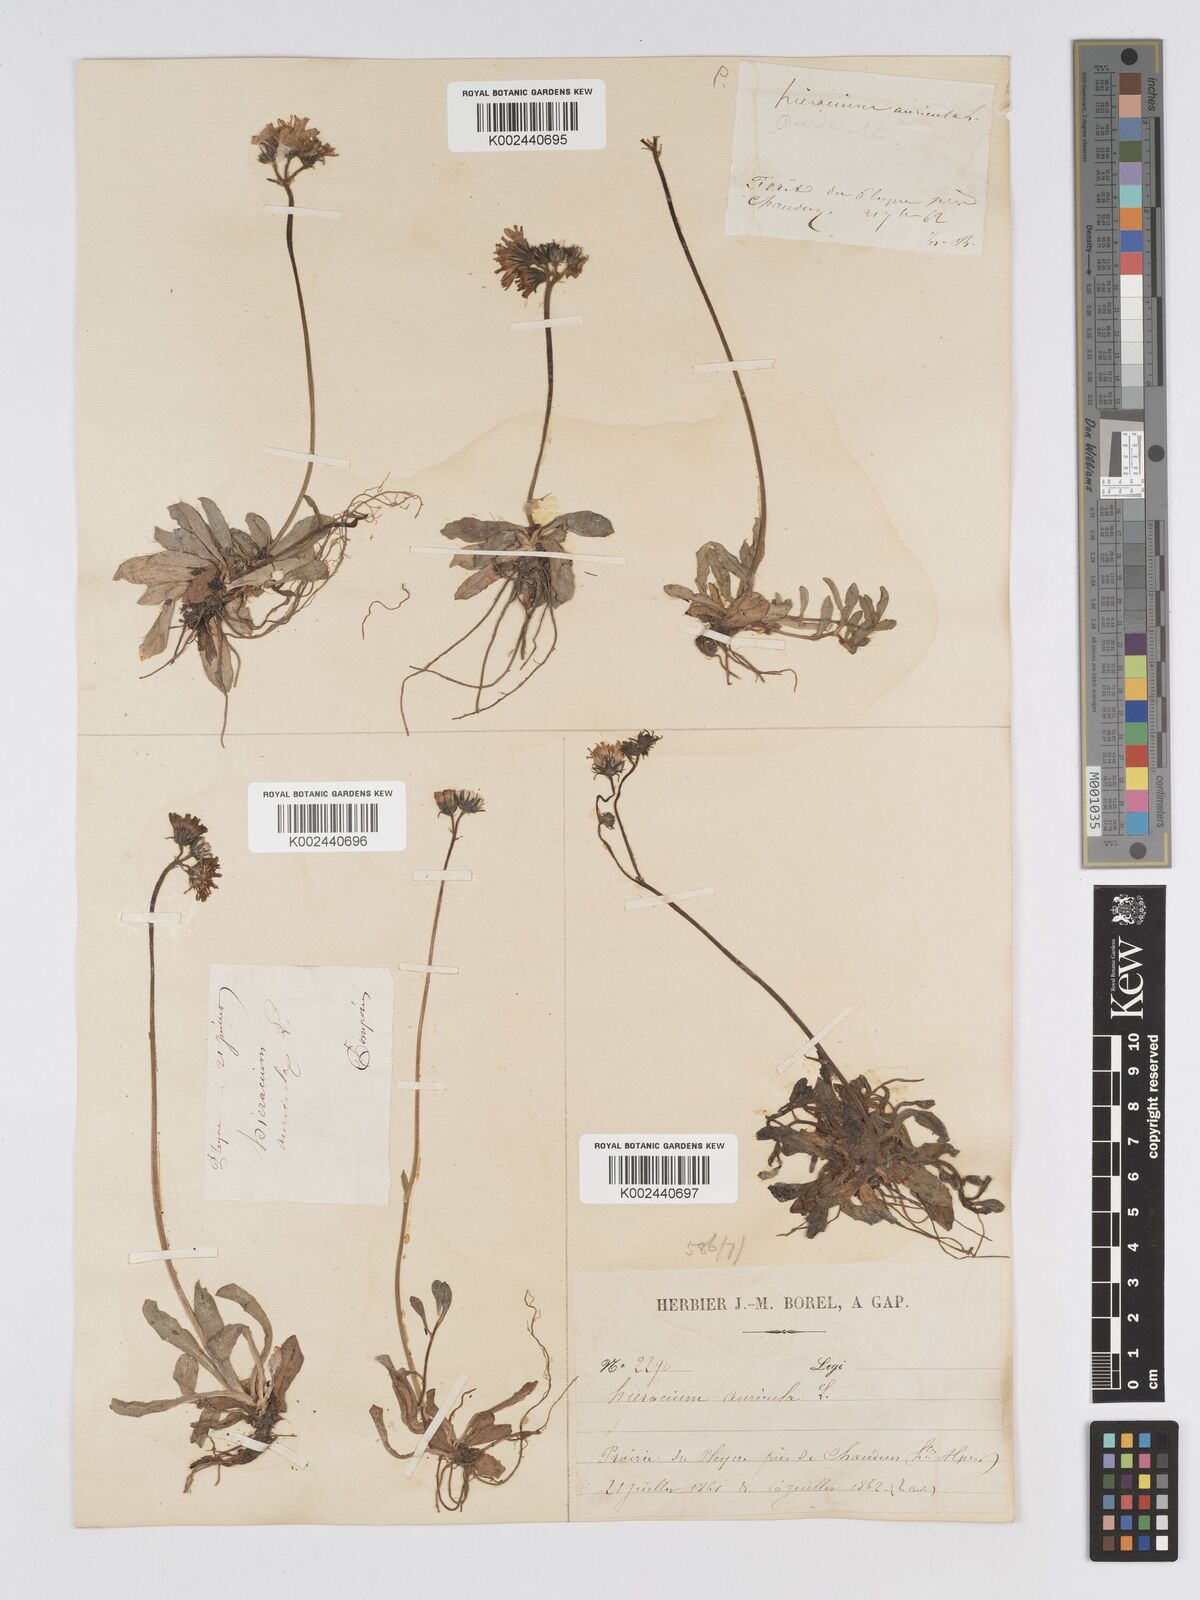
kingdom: Plantae
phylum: Tracheophyta
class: Magnoliopsida
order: Asterales
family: Asteraceae
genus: Pilosella
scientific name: Pilosella floribunda
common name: Glaucous hawkweed
